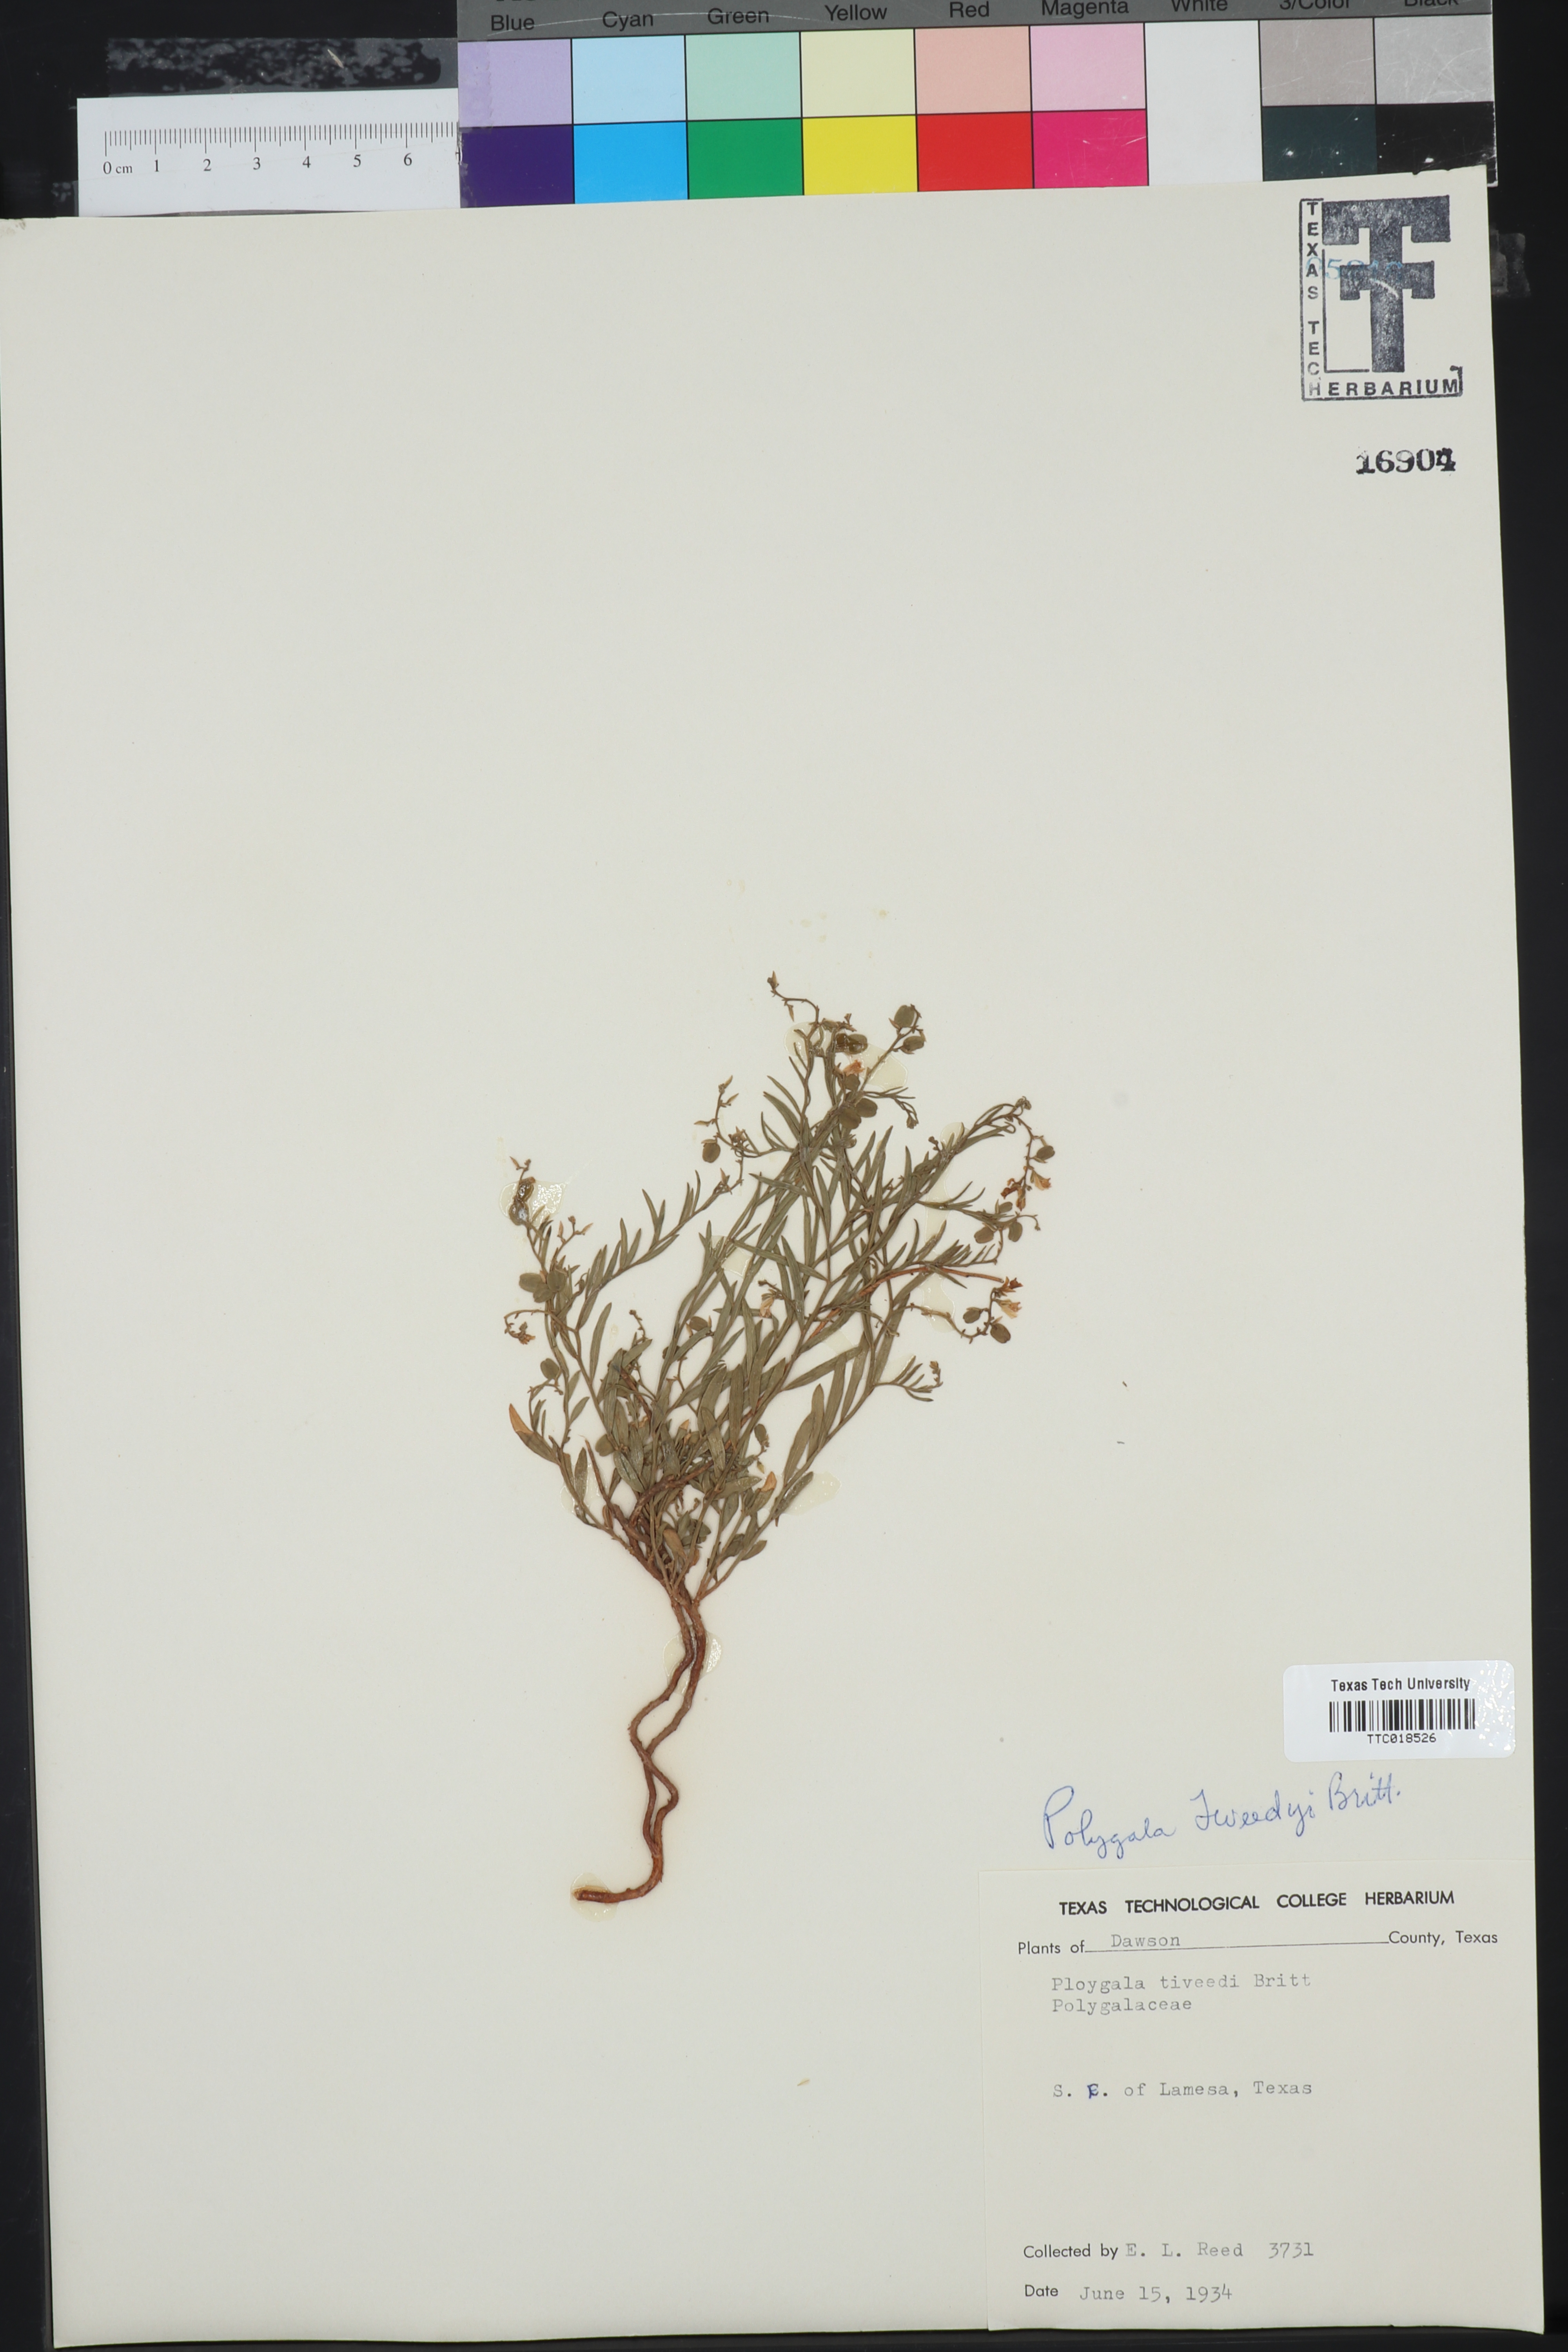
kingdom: Plantae
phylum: Tracheophyta
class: Magnoliopsida
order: Fabales
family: Polygalaceae
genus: Rhinotropis
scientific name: Rhinotropis lindheimeri
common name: Shrubby milkwort
